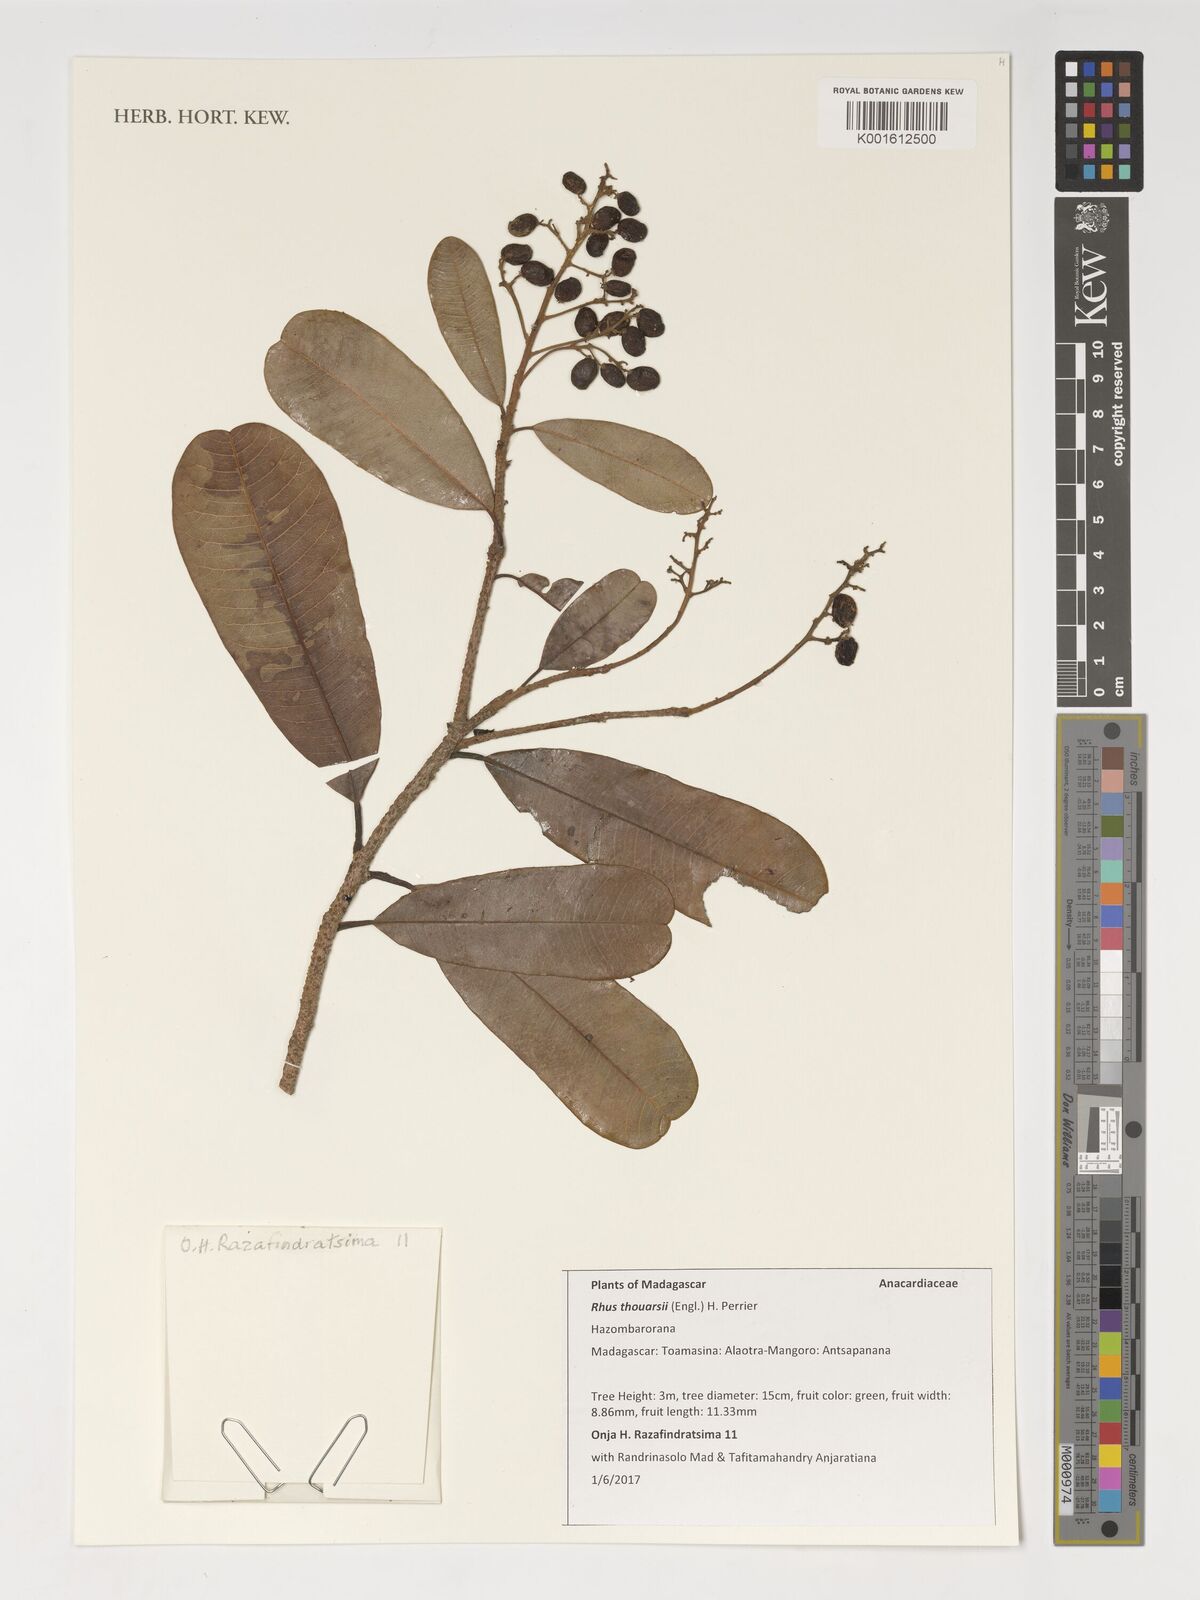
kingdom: Plantae
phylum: Tracheophyta
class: Magnoliopsida
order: Sapindales
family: Anacardiaceae
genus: Baronia
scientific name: Baronia thouarsii
